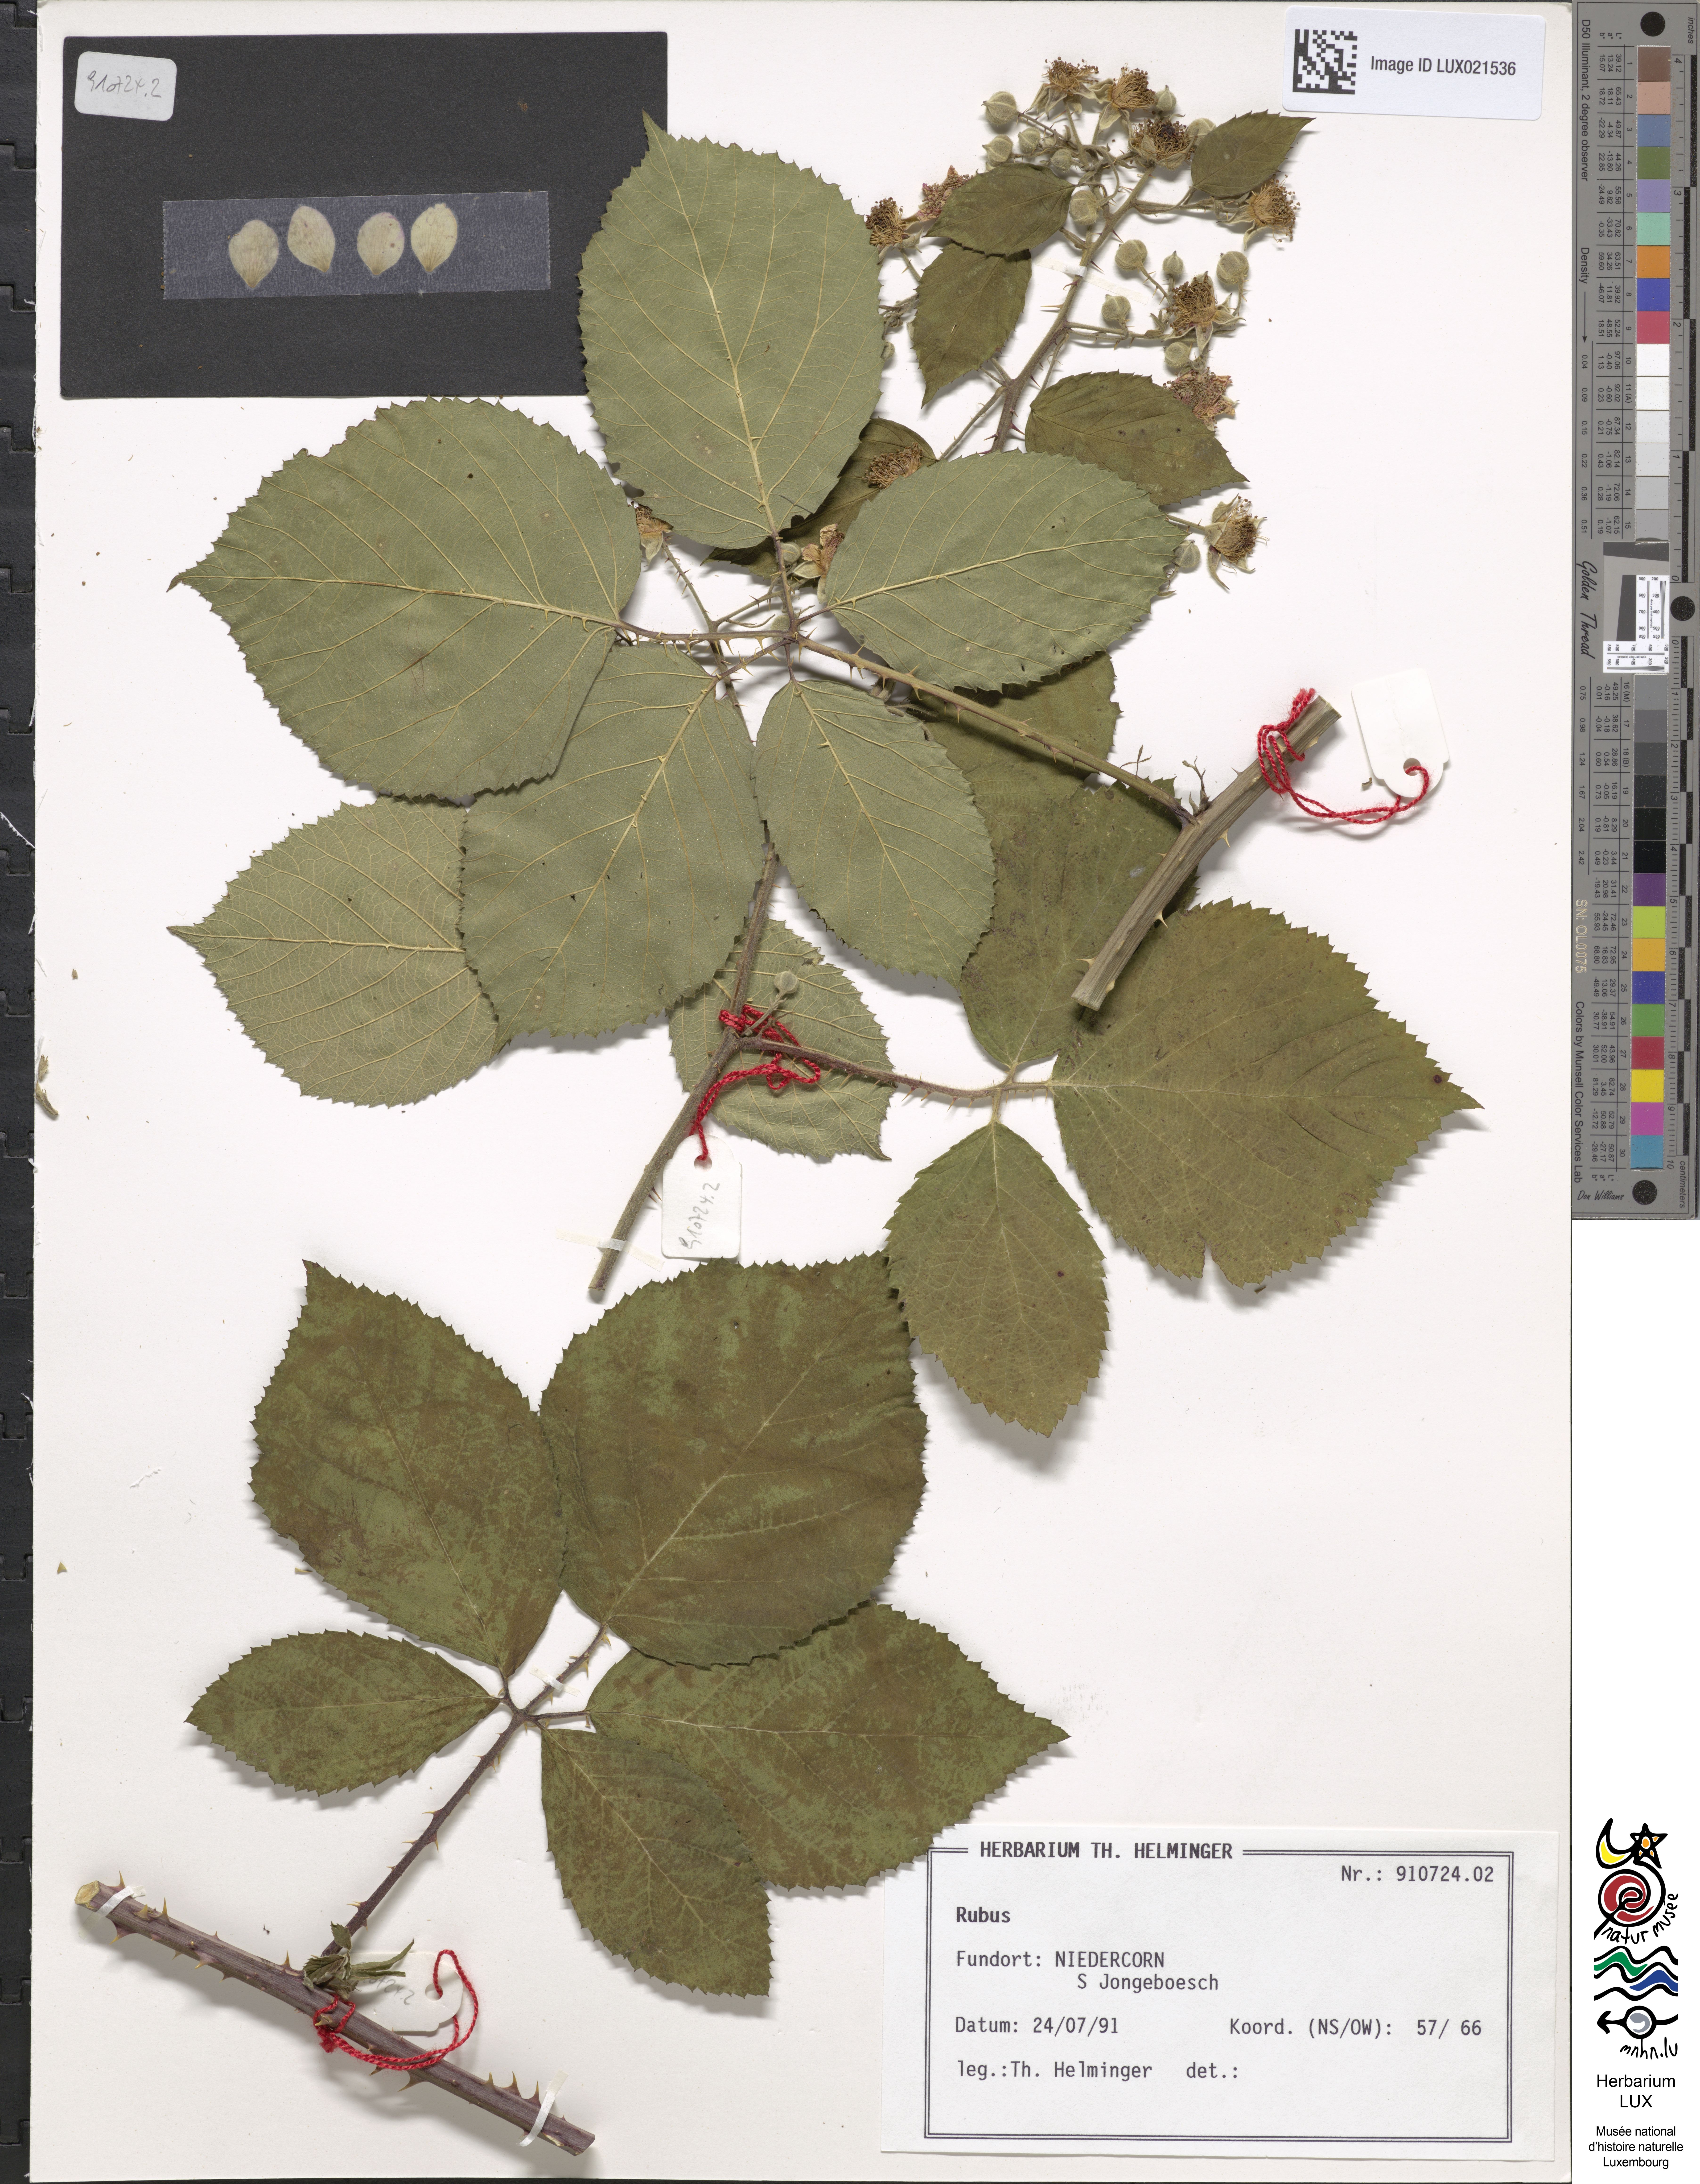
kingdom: Plantae
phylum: Tracheophyta
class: Magnoliopsida
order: Rosales
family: Rosaceae
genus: Rubus
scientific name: Rubus
